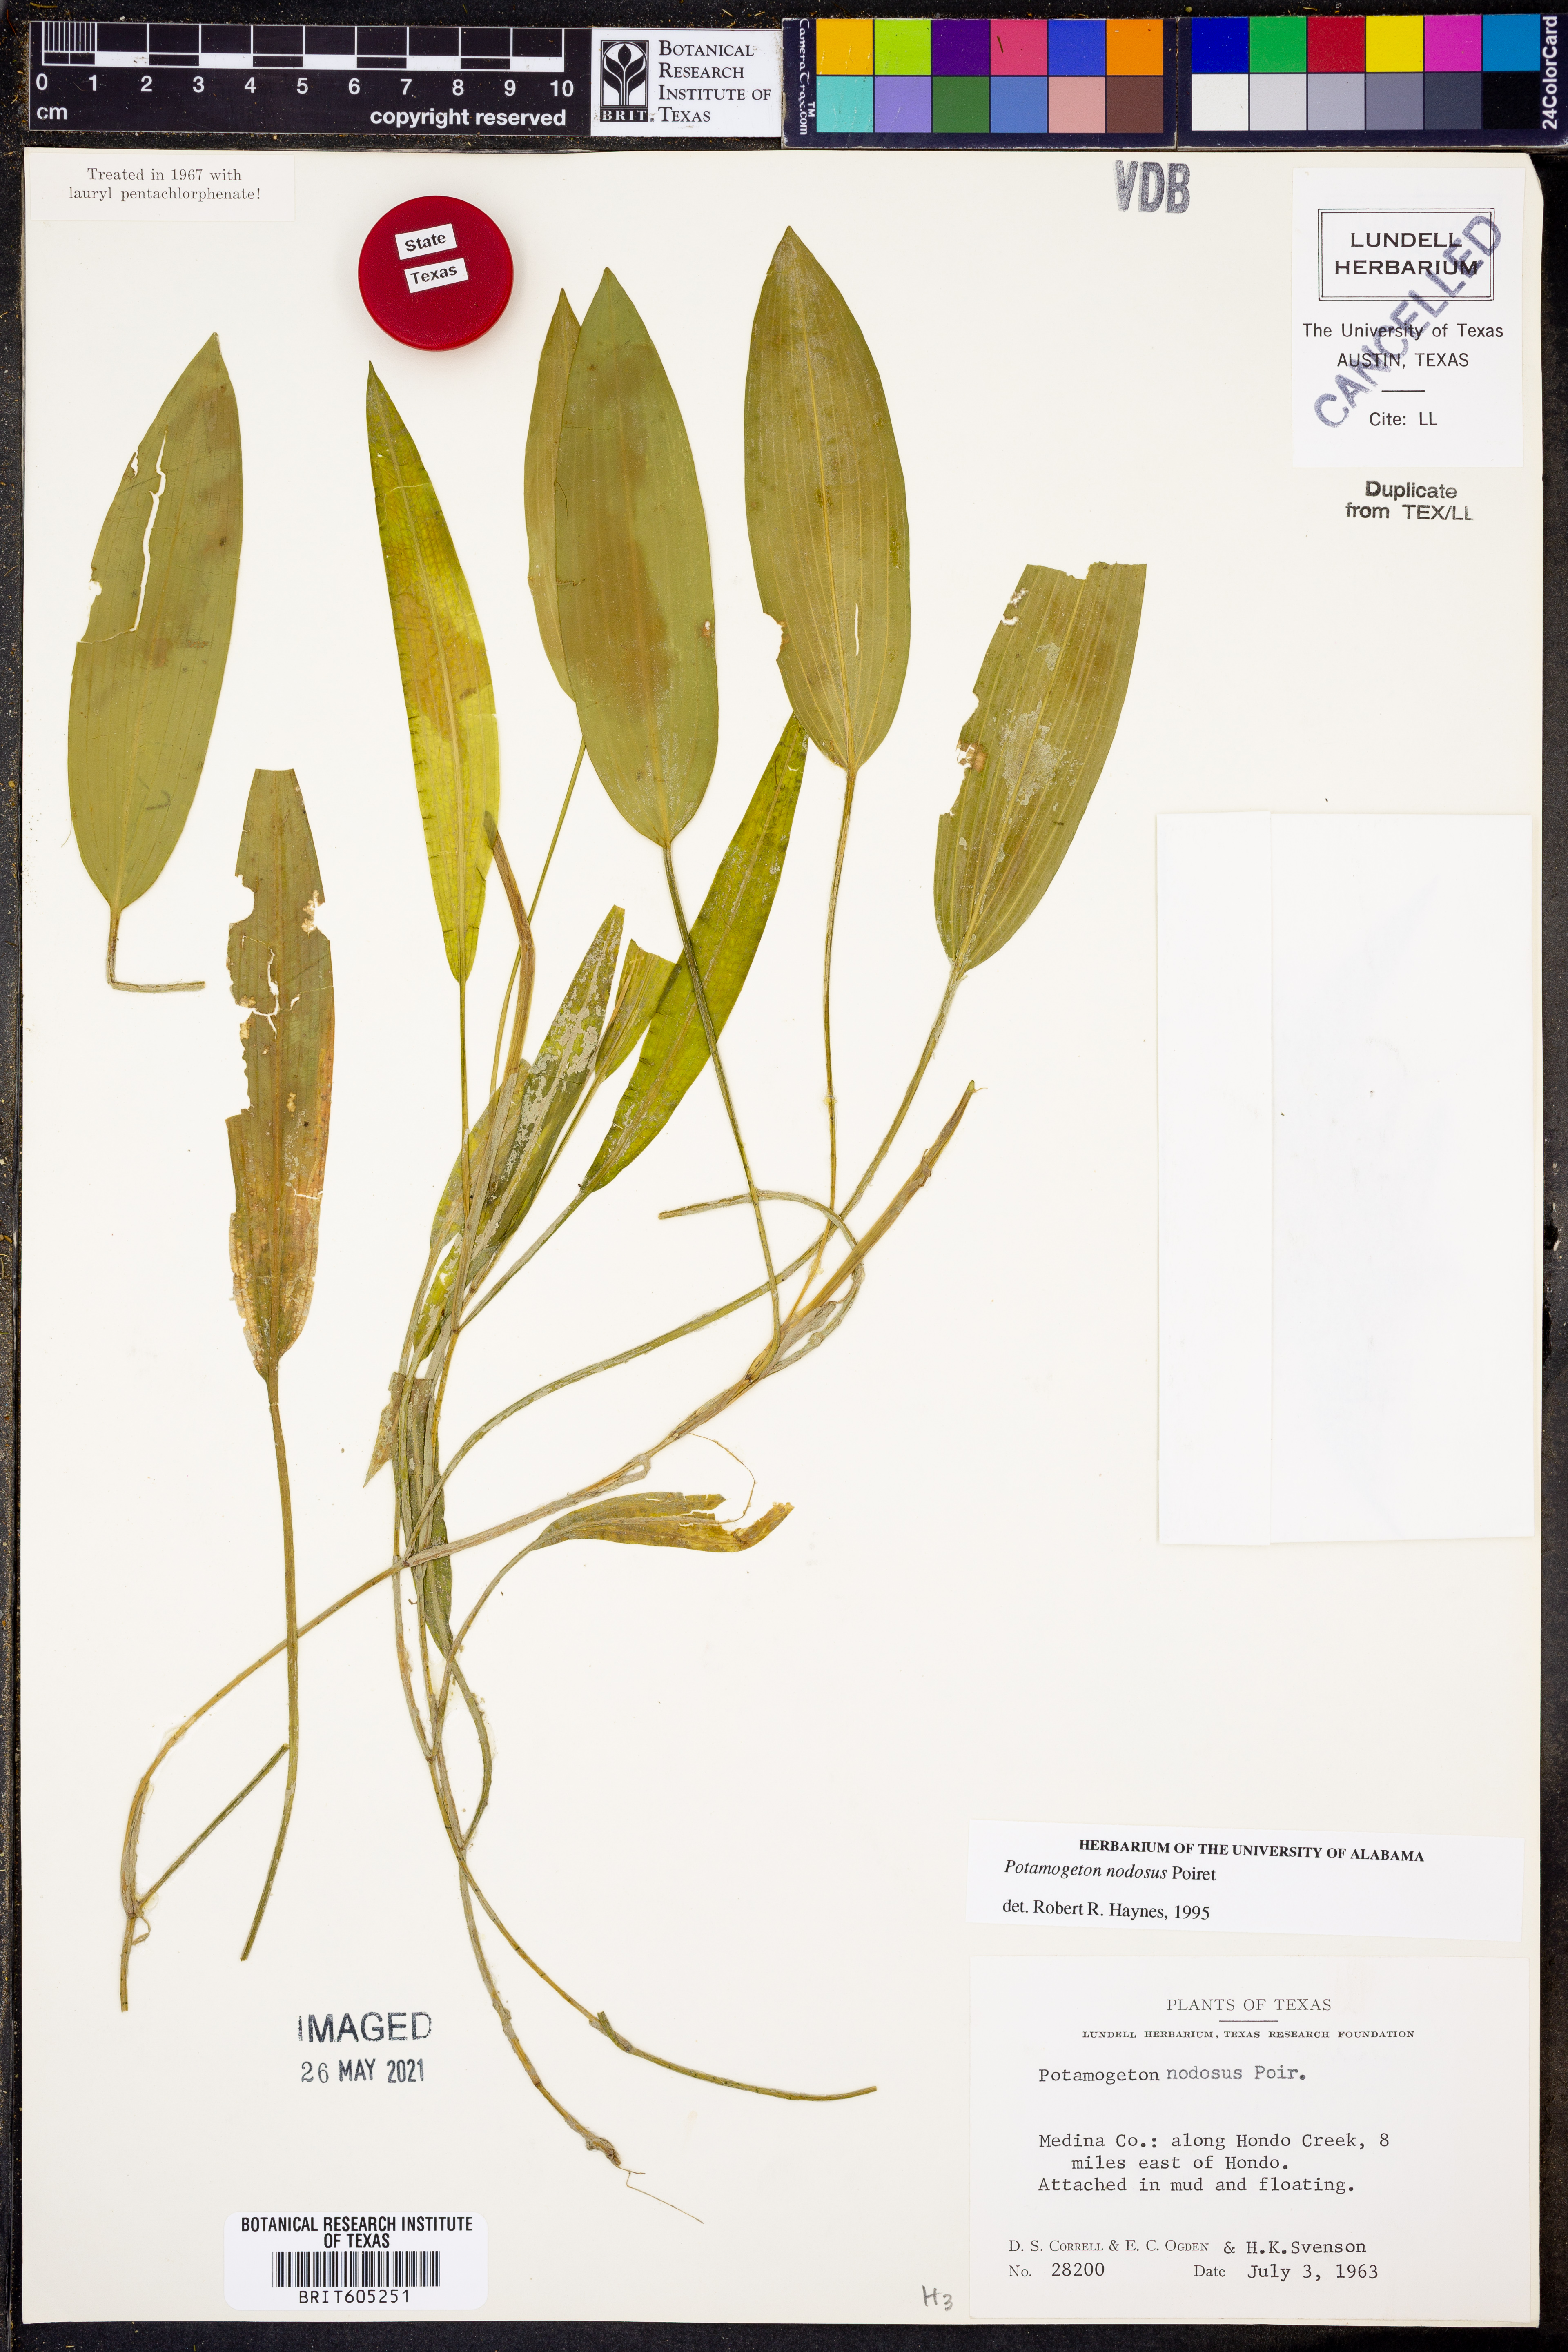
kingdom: Plantae
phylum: Tracheophyta
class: Liliopsida
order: Alismatales
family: Potamogetonaceae
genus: Potamogeton
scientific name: Potamogeton nodosus
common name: Loddon pondweed
